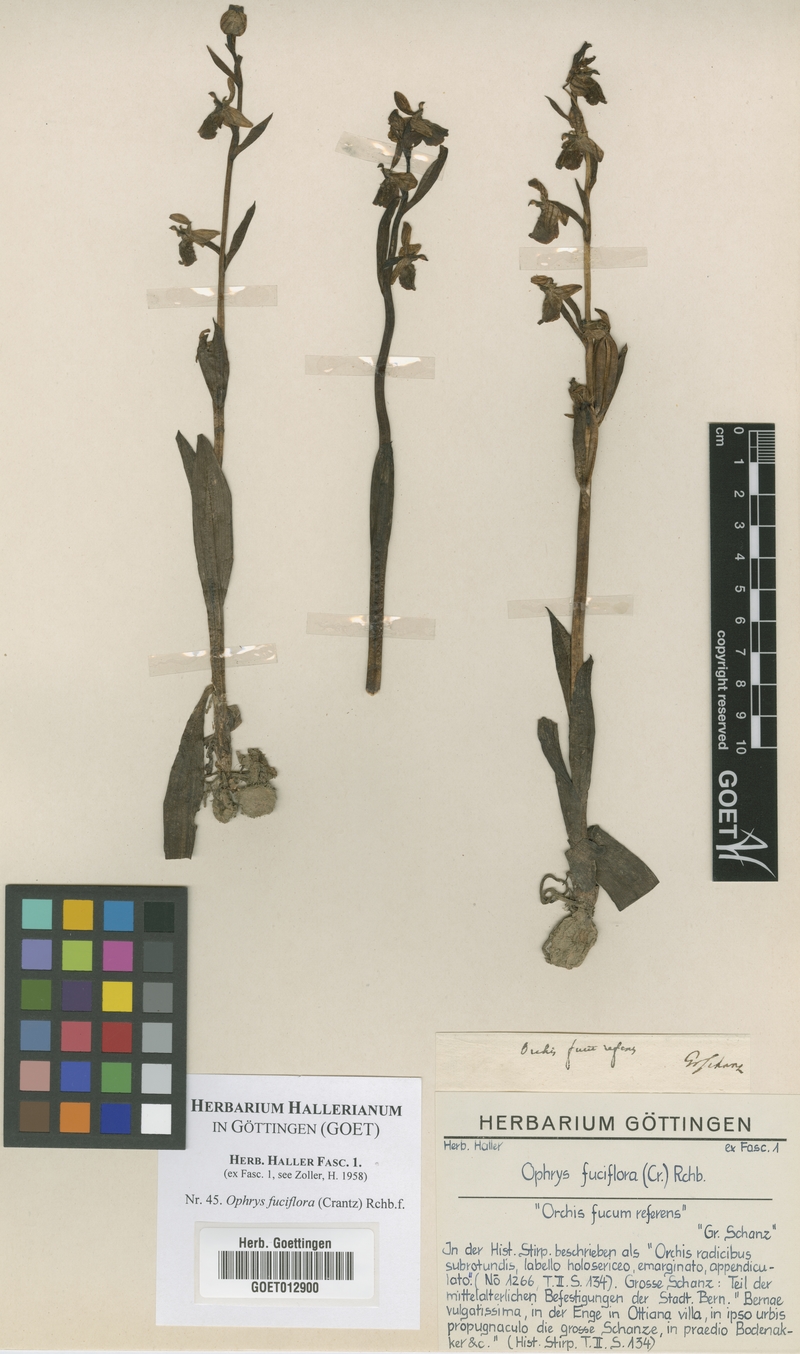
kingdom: Plantae
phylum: Tracheophyta
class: Liliopsida
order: Asparagales
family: Orchidaceae
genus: Ophrys
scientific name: Ophrys holosericea
